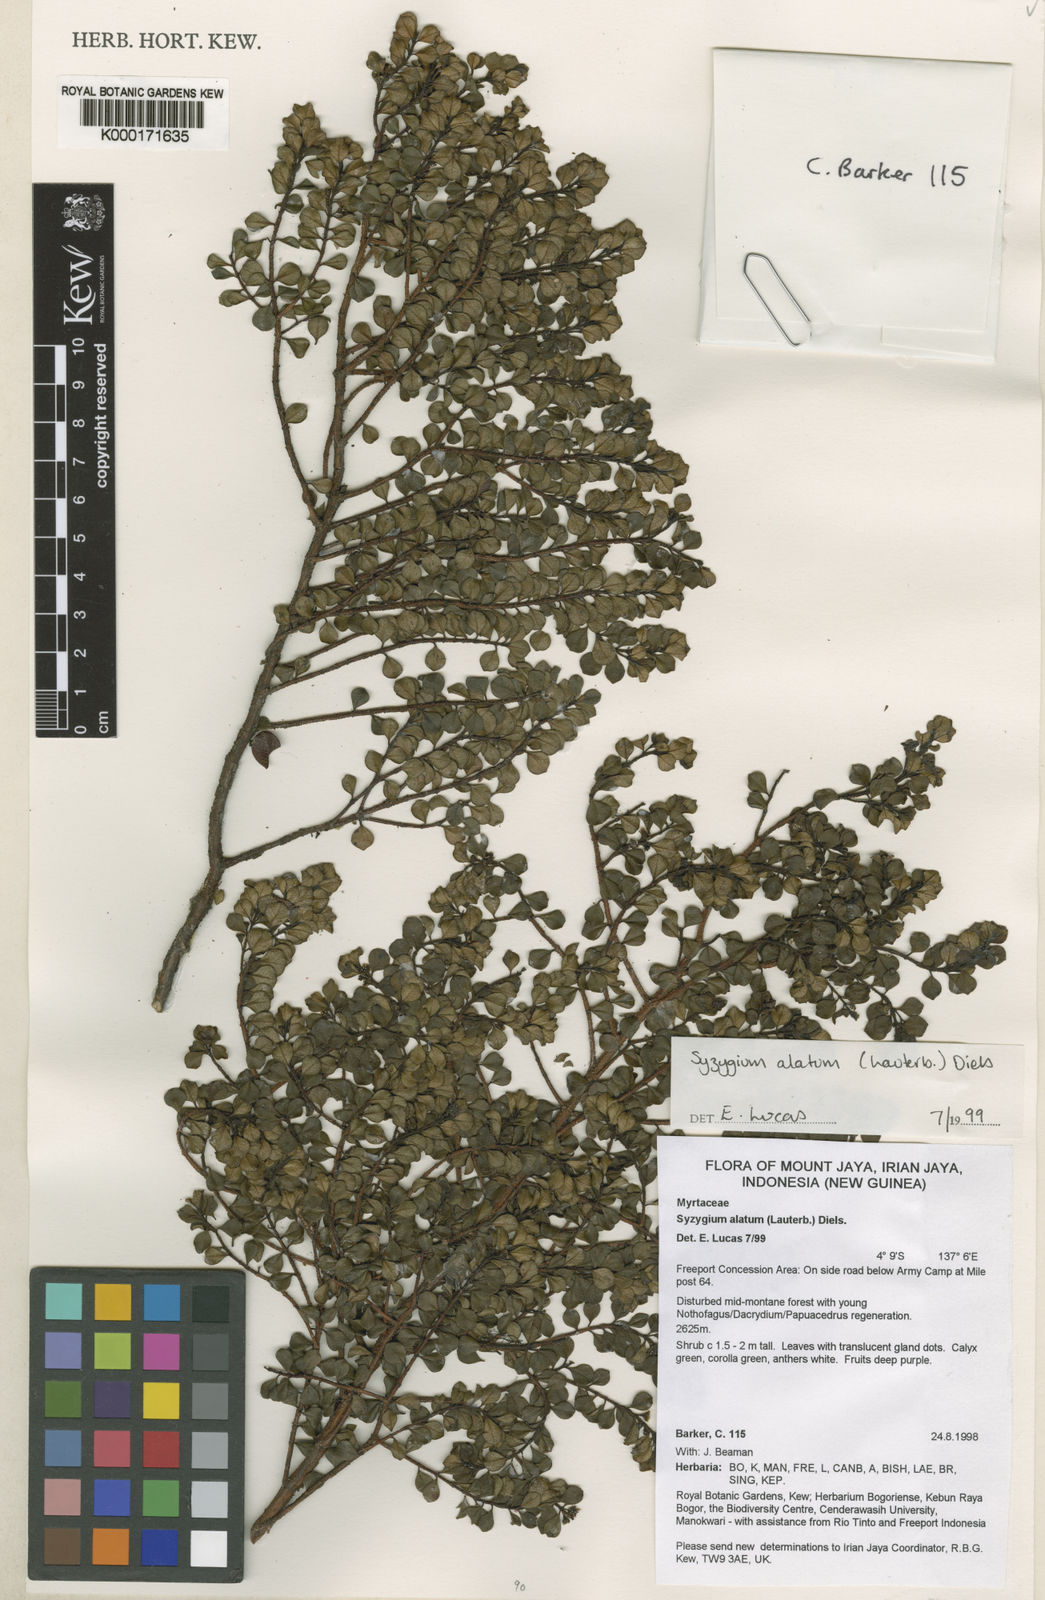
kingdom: Plantae
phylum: Tracheophyta
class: Magnoliopsida
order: Myrtales
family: Myrtaceae
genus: Syzygium
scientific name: Syzygium alatum
